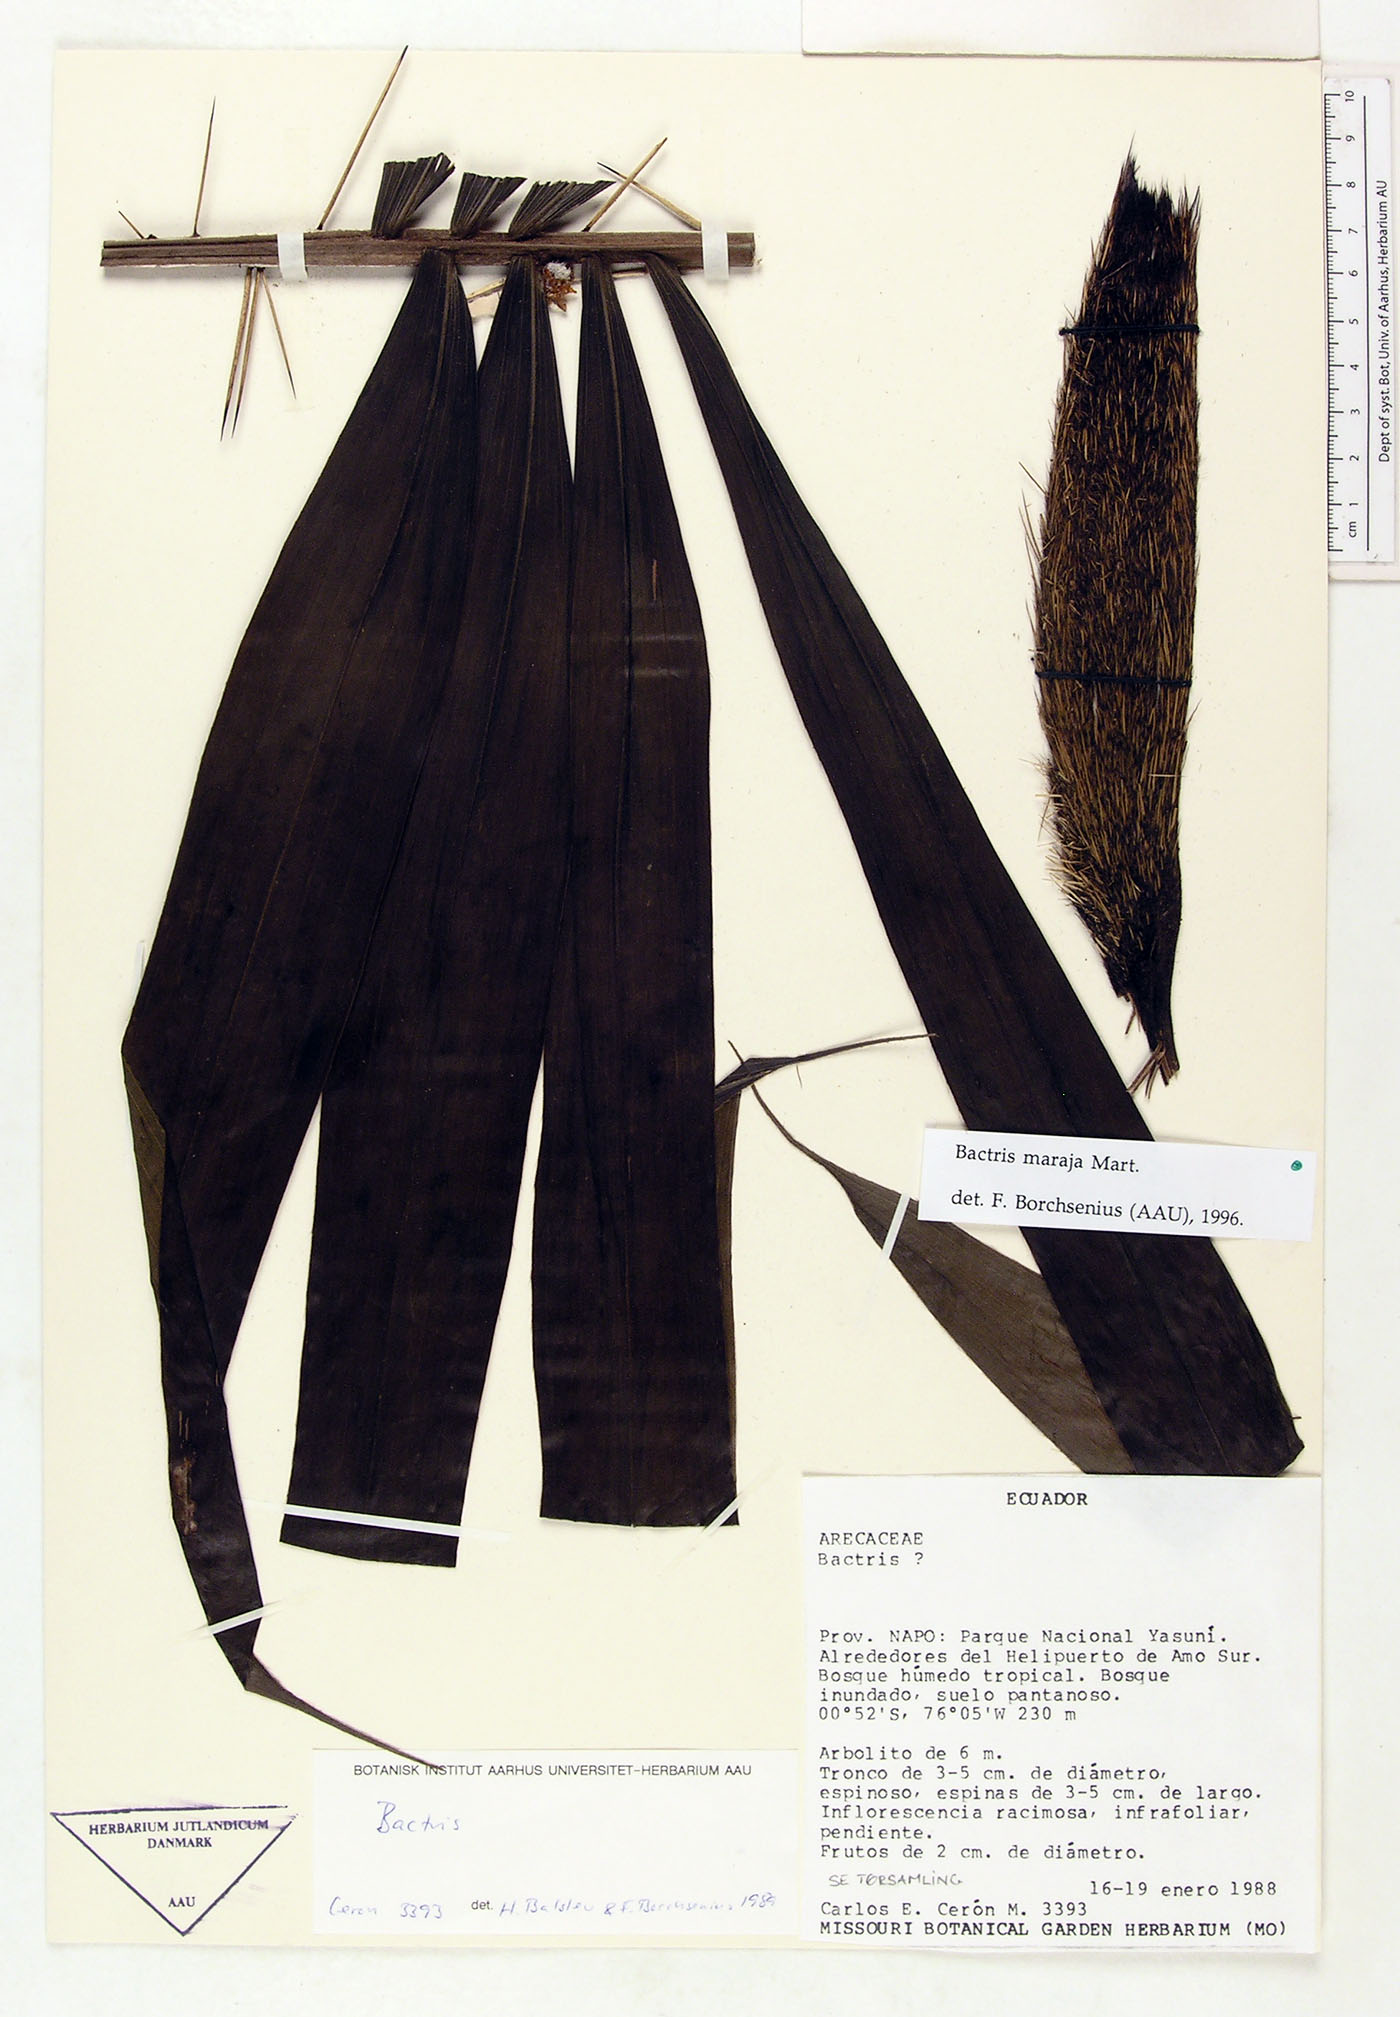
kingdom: Plantae
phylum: Tracheophyta
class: Liliopsida
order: Arecales
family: Arecaceae
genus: Bactris
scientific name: Bactris maraja
